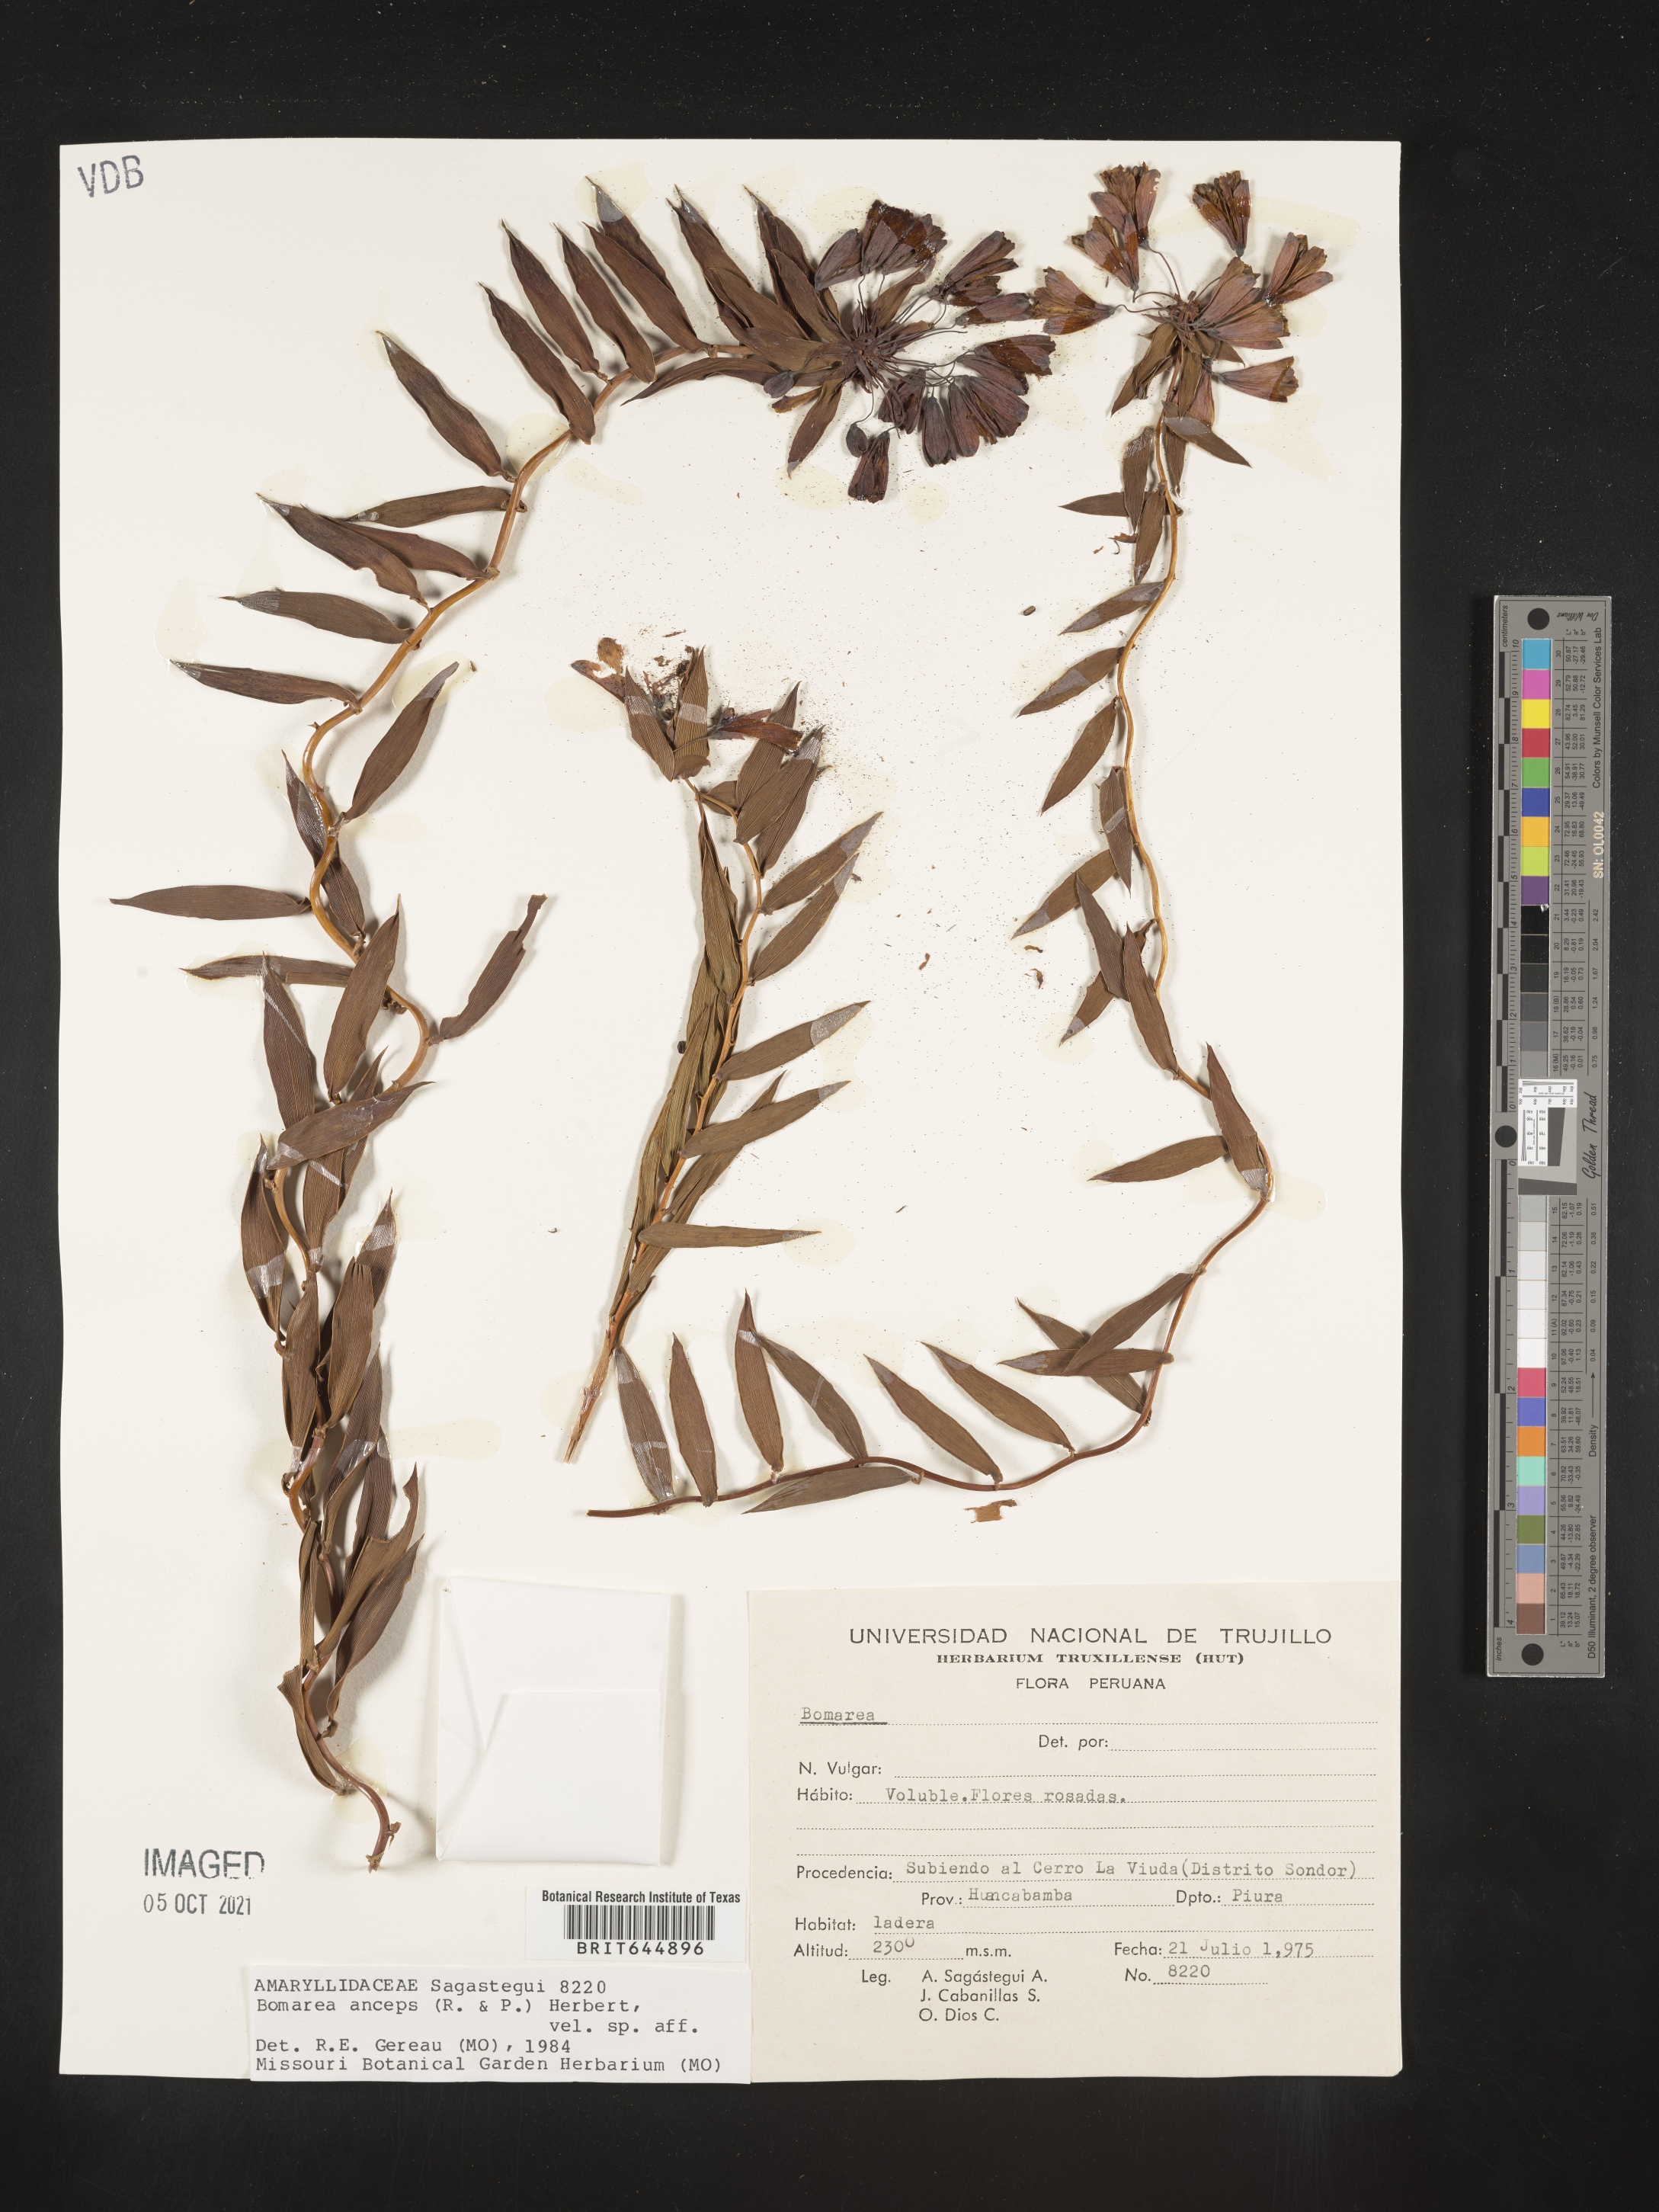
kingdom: Plantae
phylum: Tracheophyta
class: Liliopsida
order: Liliales
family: Alstroemeriaceae
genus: Bomarea
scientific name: Bomarea anceps
